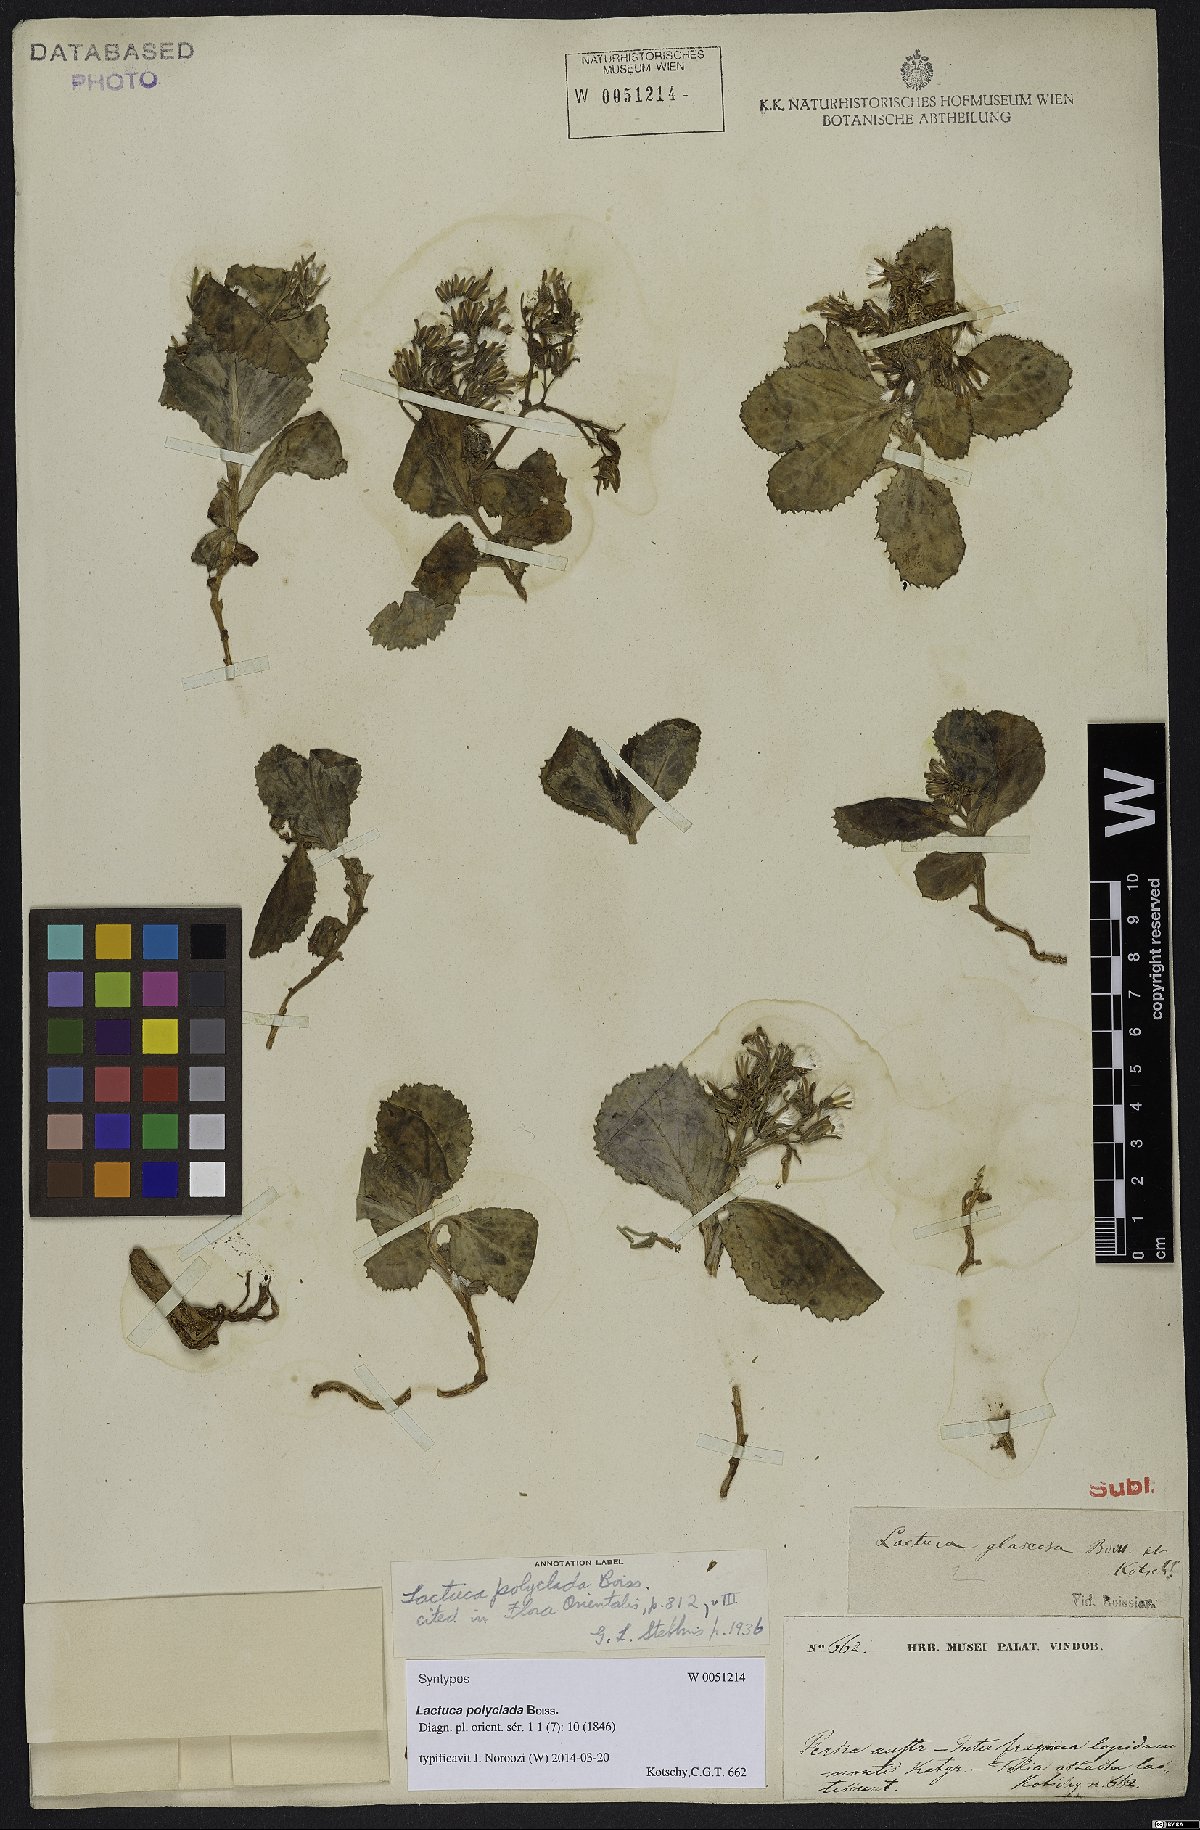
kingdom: Plantae
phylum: Tracheophyta
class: Magnoliopsida
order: Asterales
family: Asteraceae
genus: Lactuca
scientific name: Lactuca polyclada
